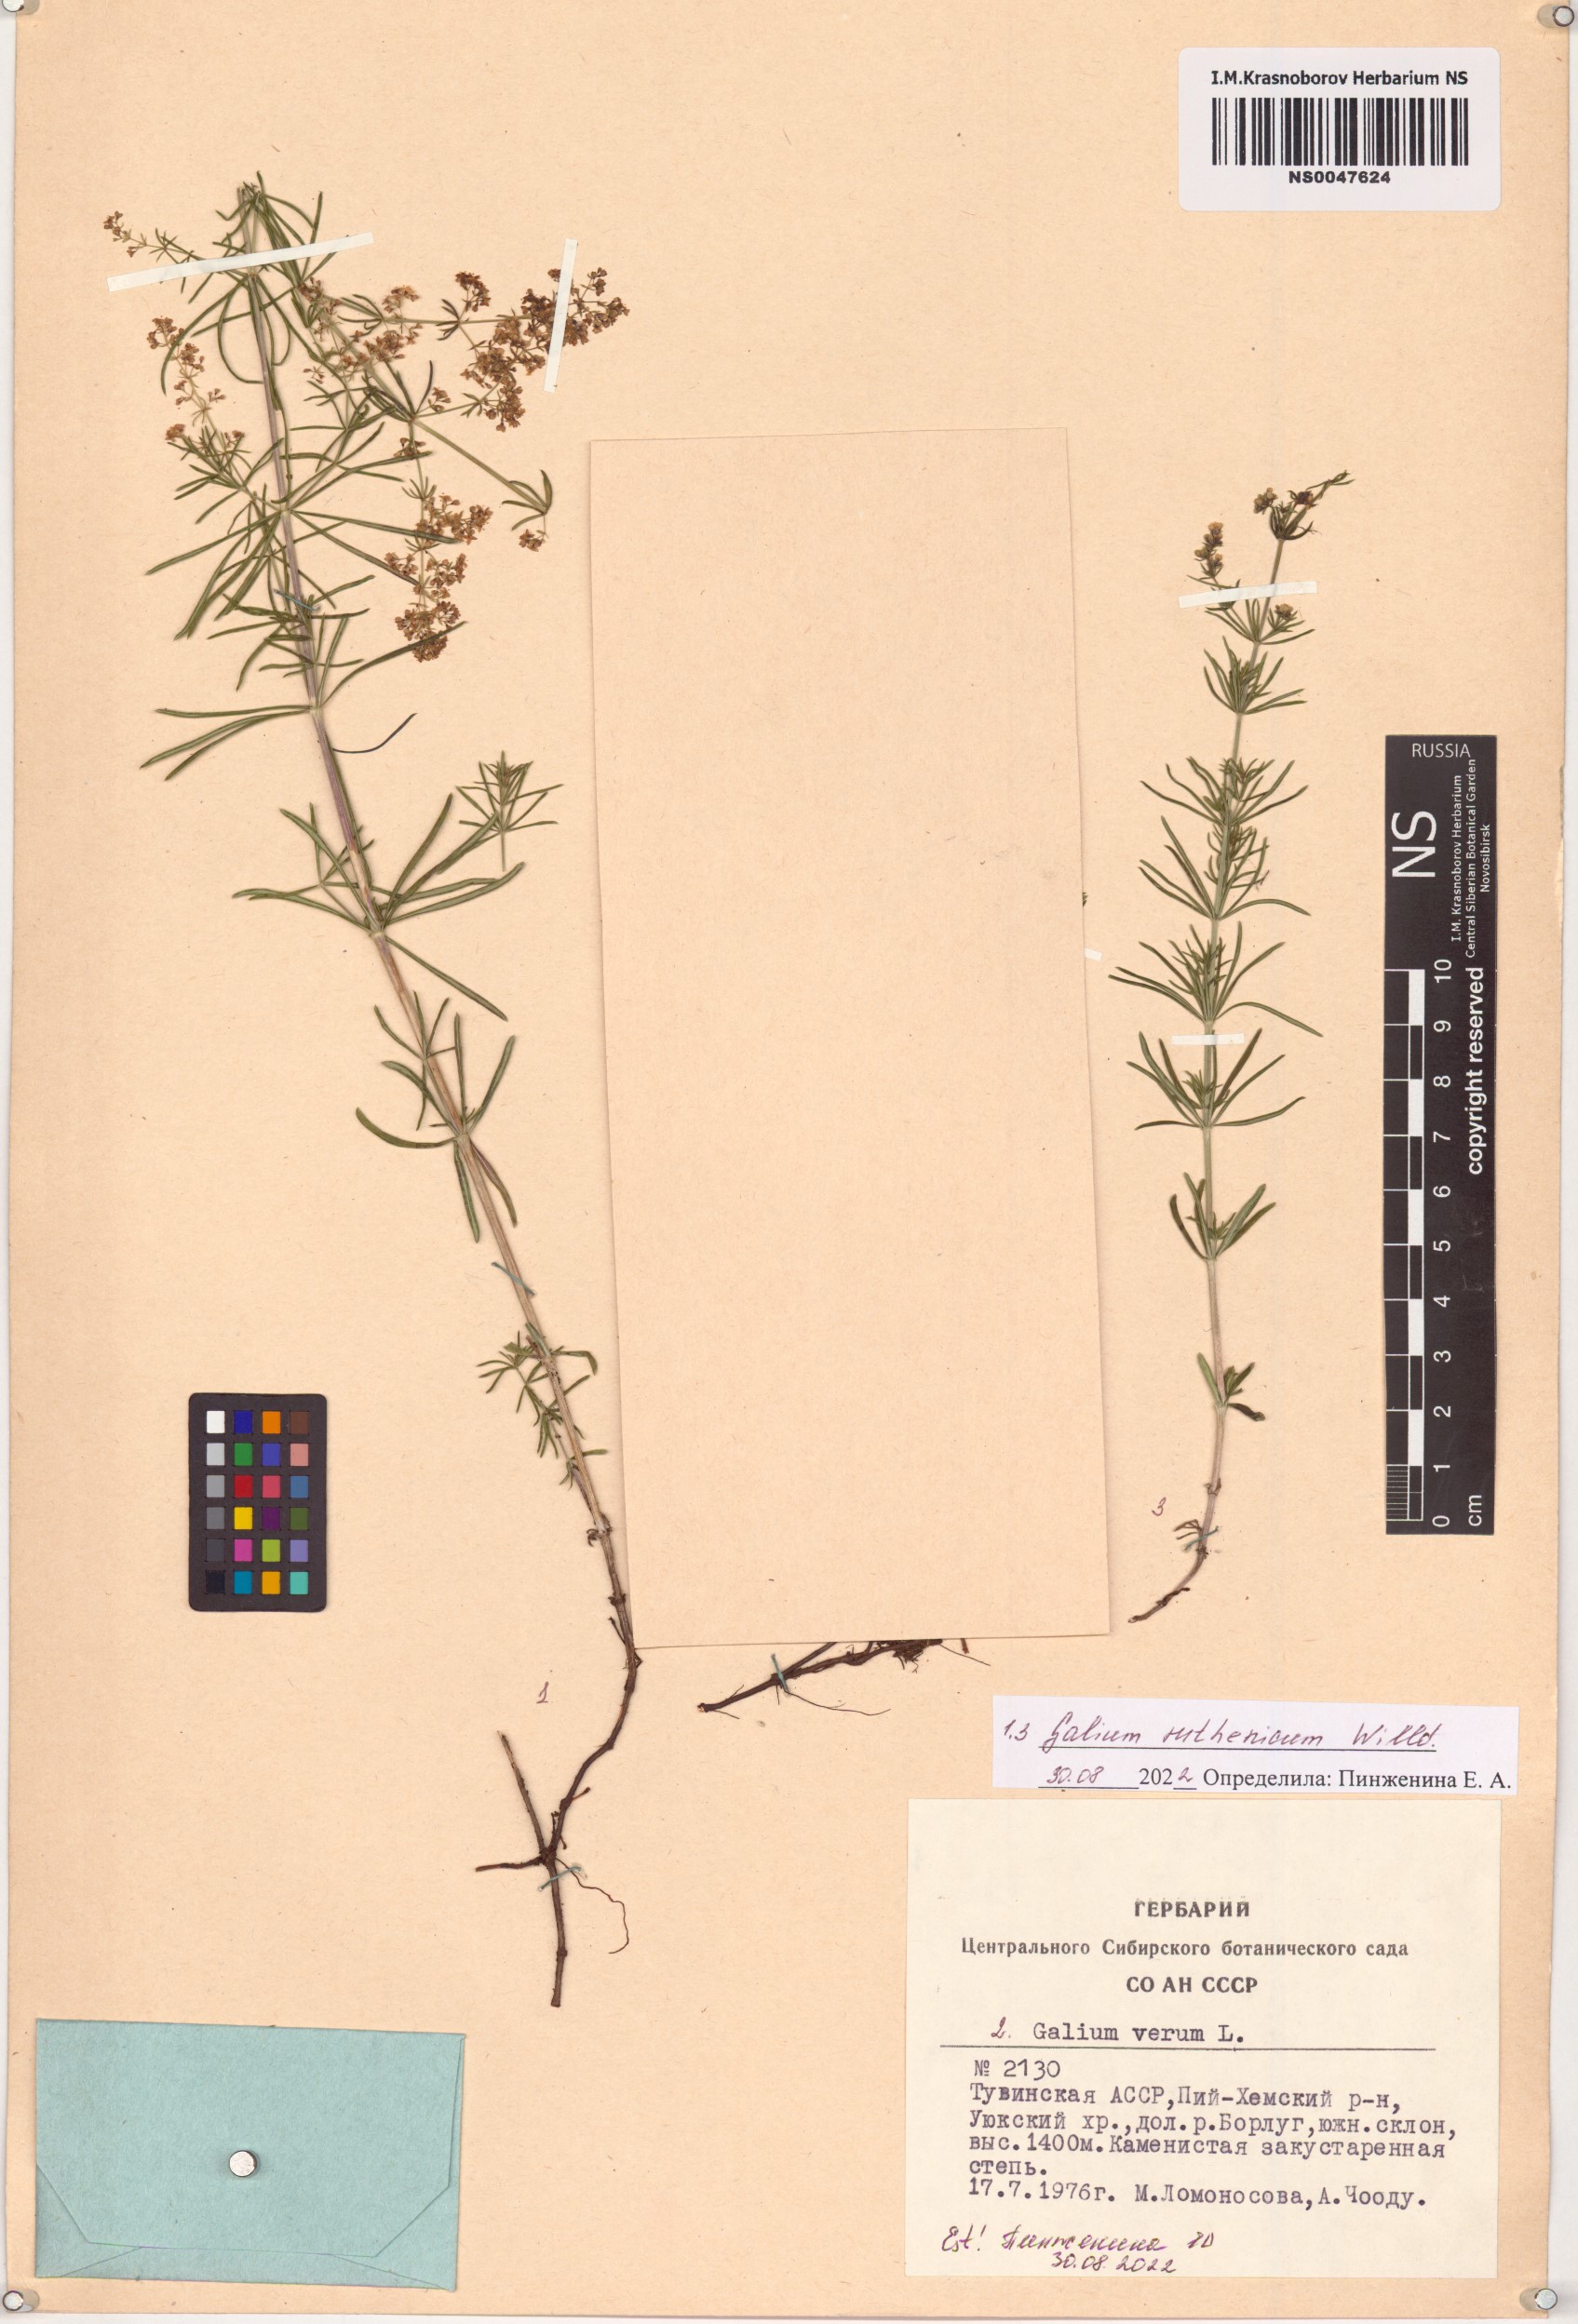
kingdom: Plantae
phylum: Tracheophyta
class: Magnoliopsida
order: Gentianales
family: Rubiaceae
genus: Galium
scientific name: Galium verum
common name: Lady's bedstraw
